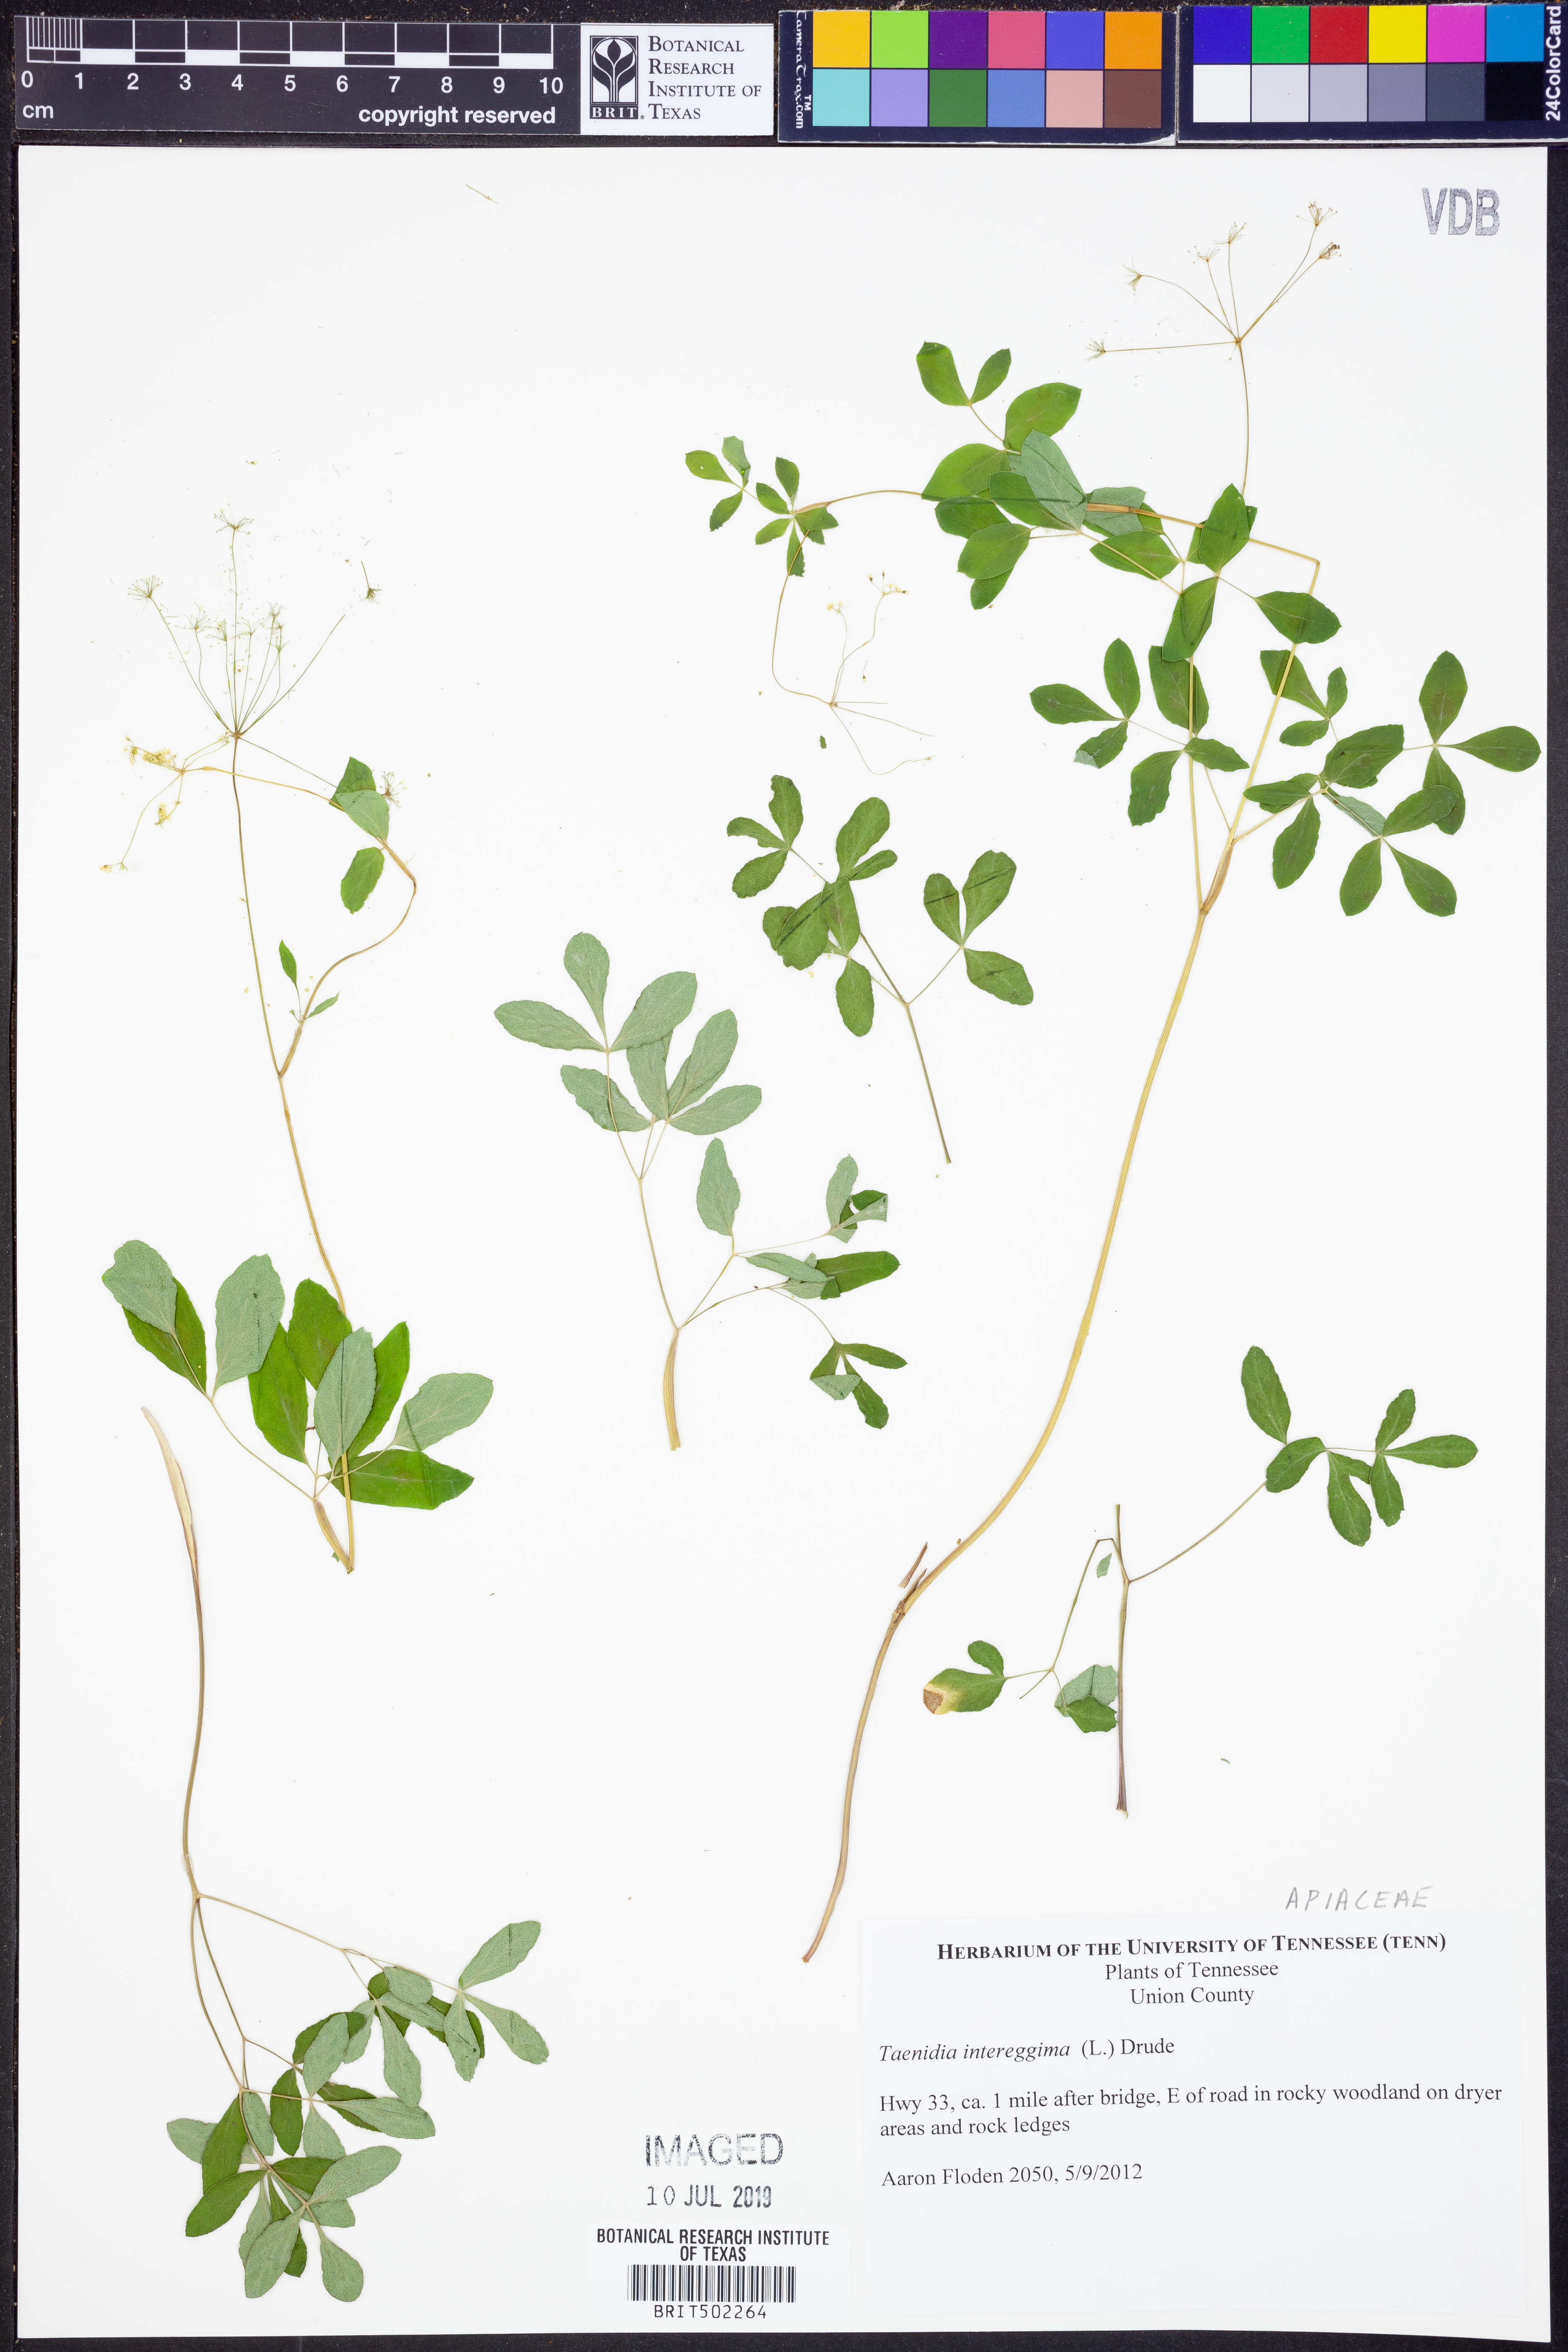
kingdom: Plantae
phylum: Tracheophyta
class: Magnoliopsida
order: Apiales
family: Apiaceae
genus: Taenidia
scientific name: Taenidia integerrima
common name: Golden alexander
